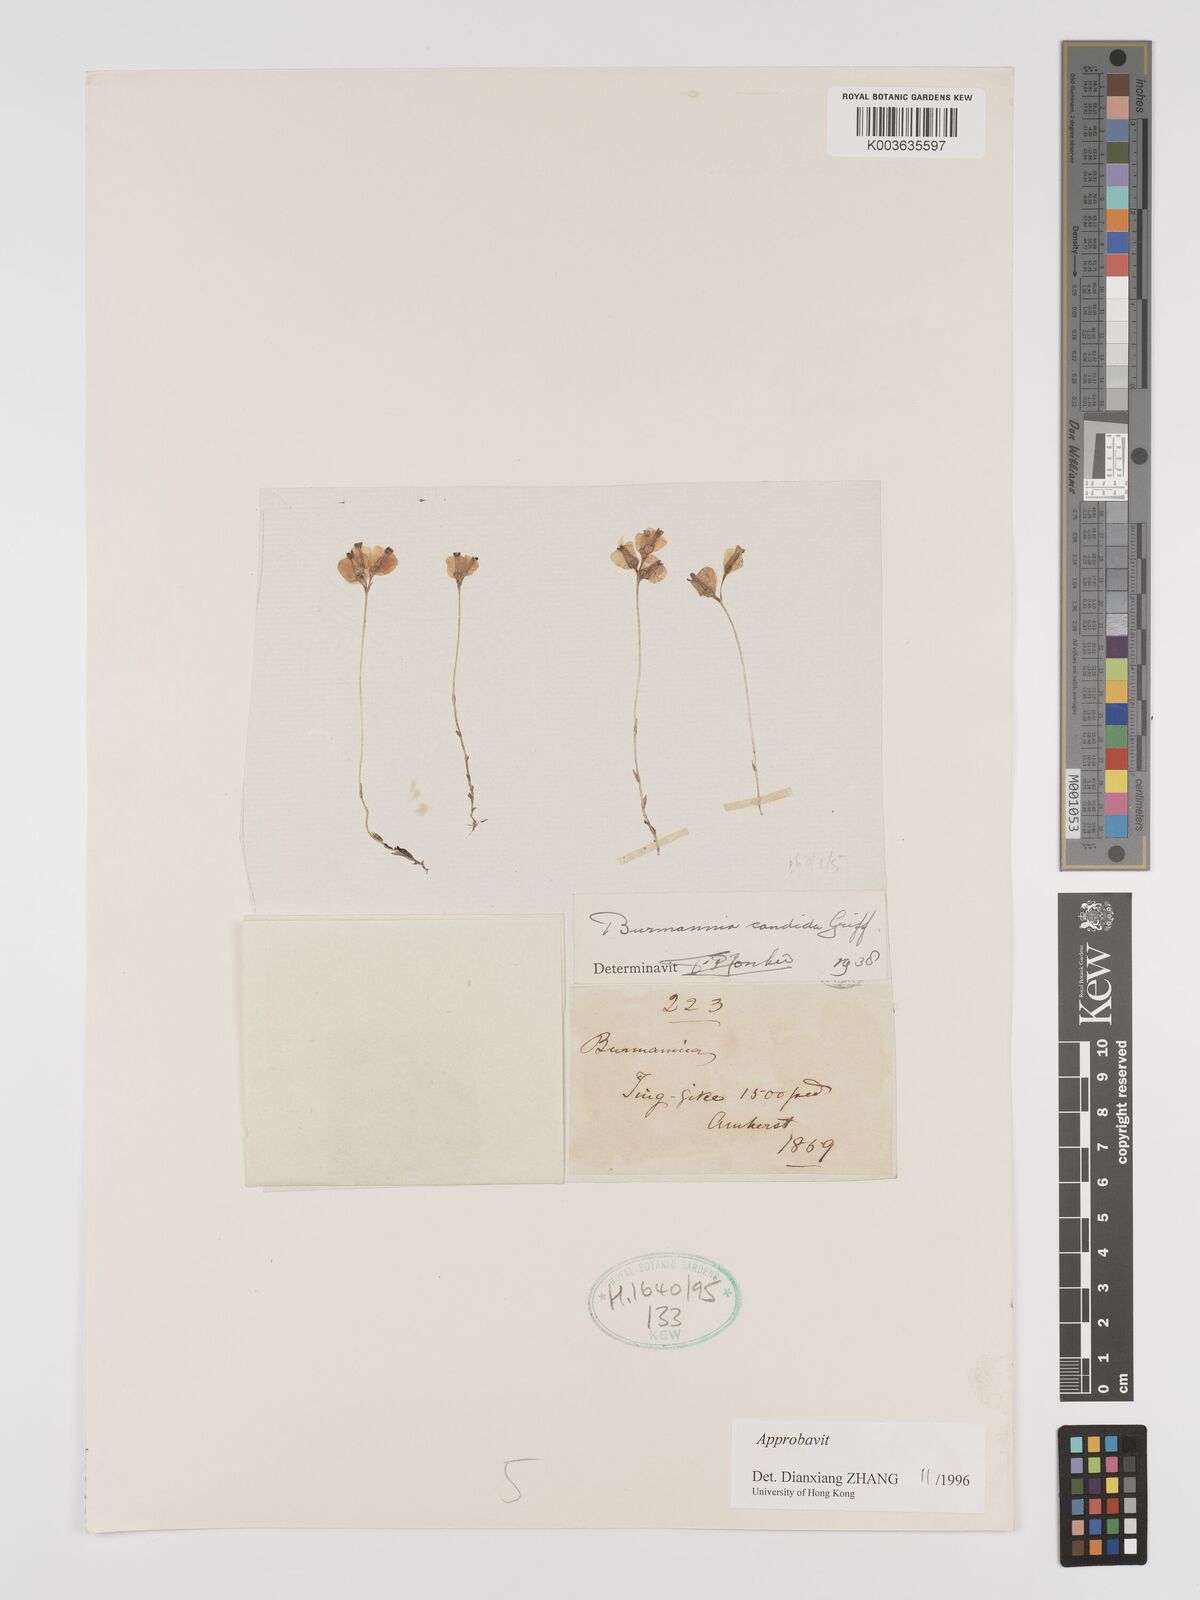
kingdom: Plantae
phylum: Tracheophyta
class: Liliopsida
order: Dioscoreales
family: Burmanniaceae
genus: Burmannia
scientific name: Burmannia candida
